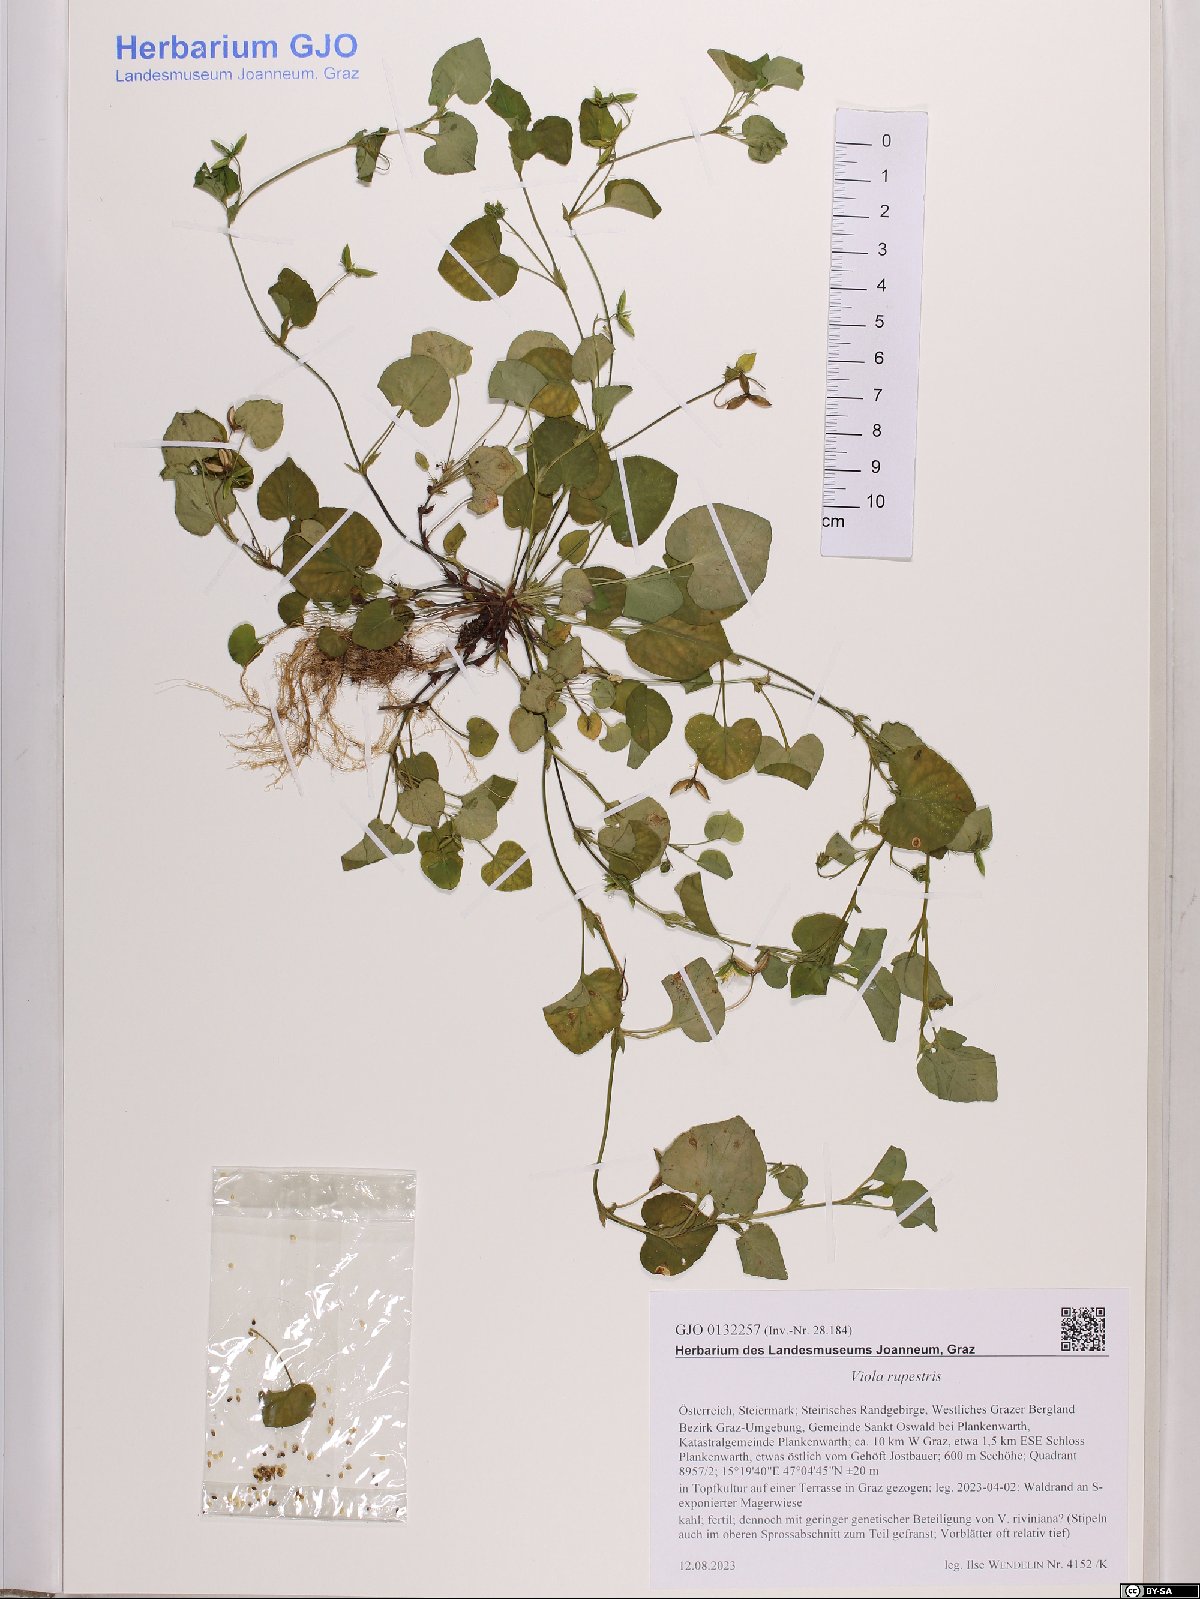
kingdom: Plantae
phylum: Tracheophyta
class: Magnoliopsida
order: Malpighiales
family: Violaceae
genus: Viola
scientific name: Viola rupestris
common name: Teesdale violet
